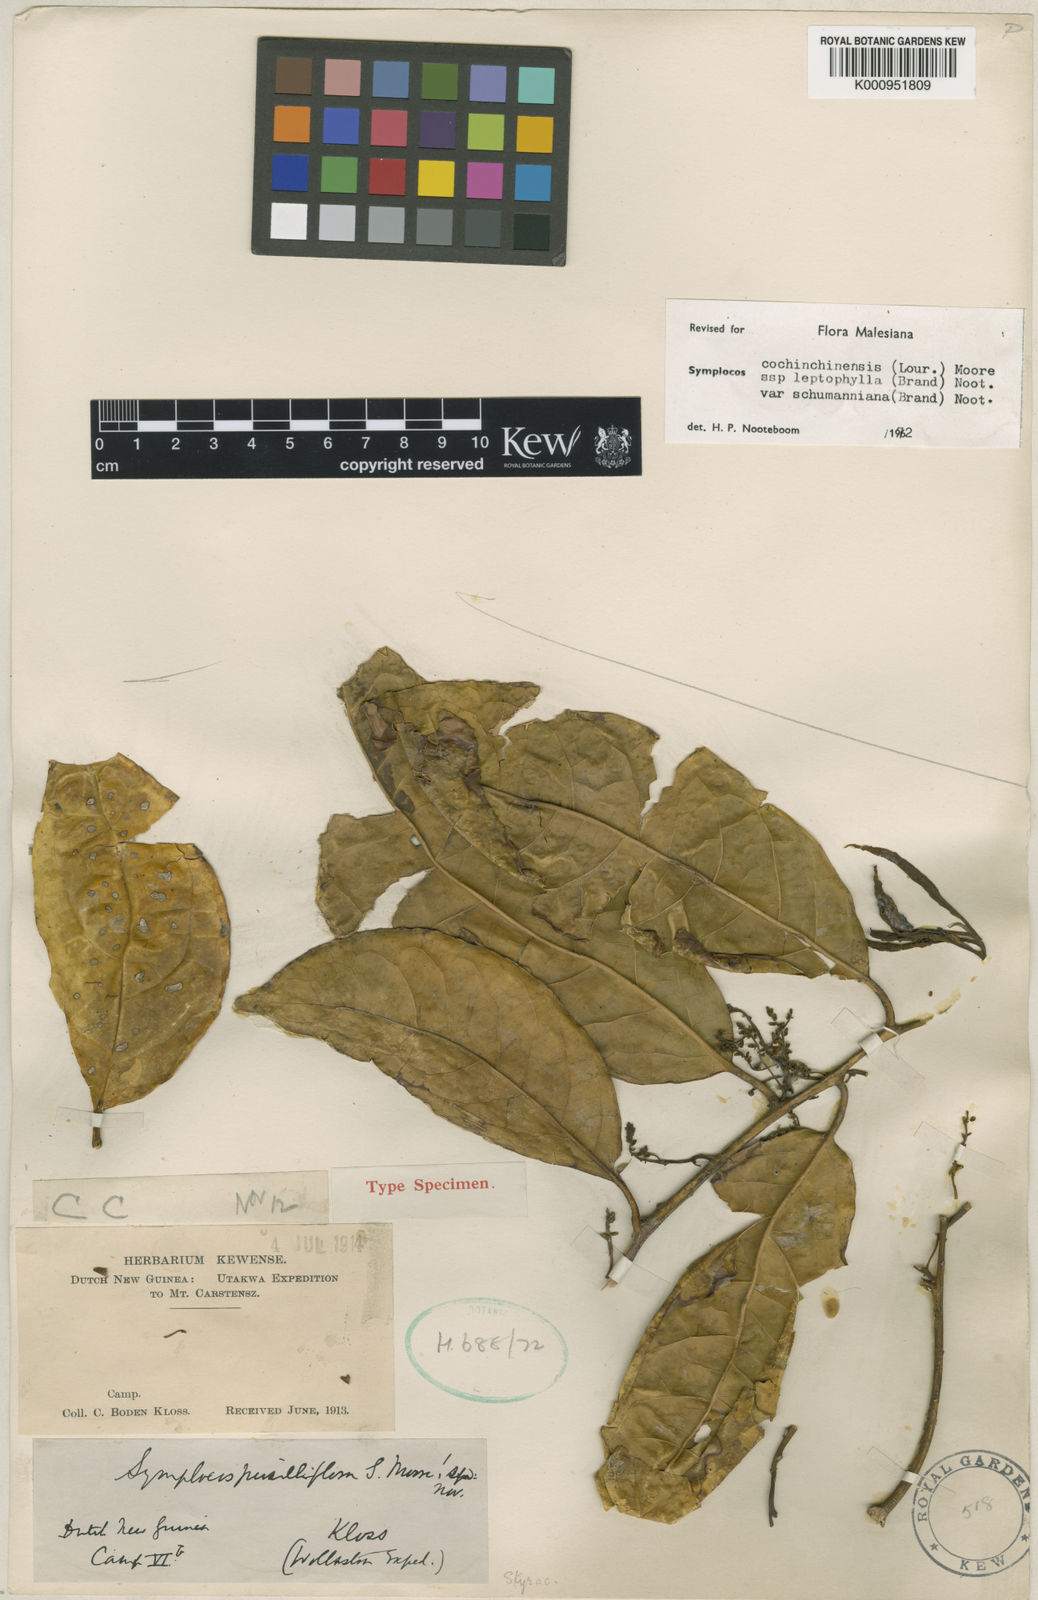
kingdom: Plantae
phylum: Tracheophyta
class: Magnoliopsida
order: Ericales
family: Symplocaceae
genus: Symplocos
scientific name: Symplocos cochinchinensis
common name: Buff hazelwood
